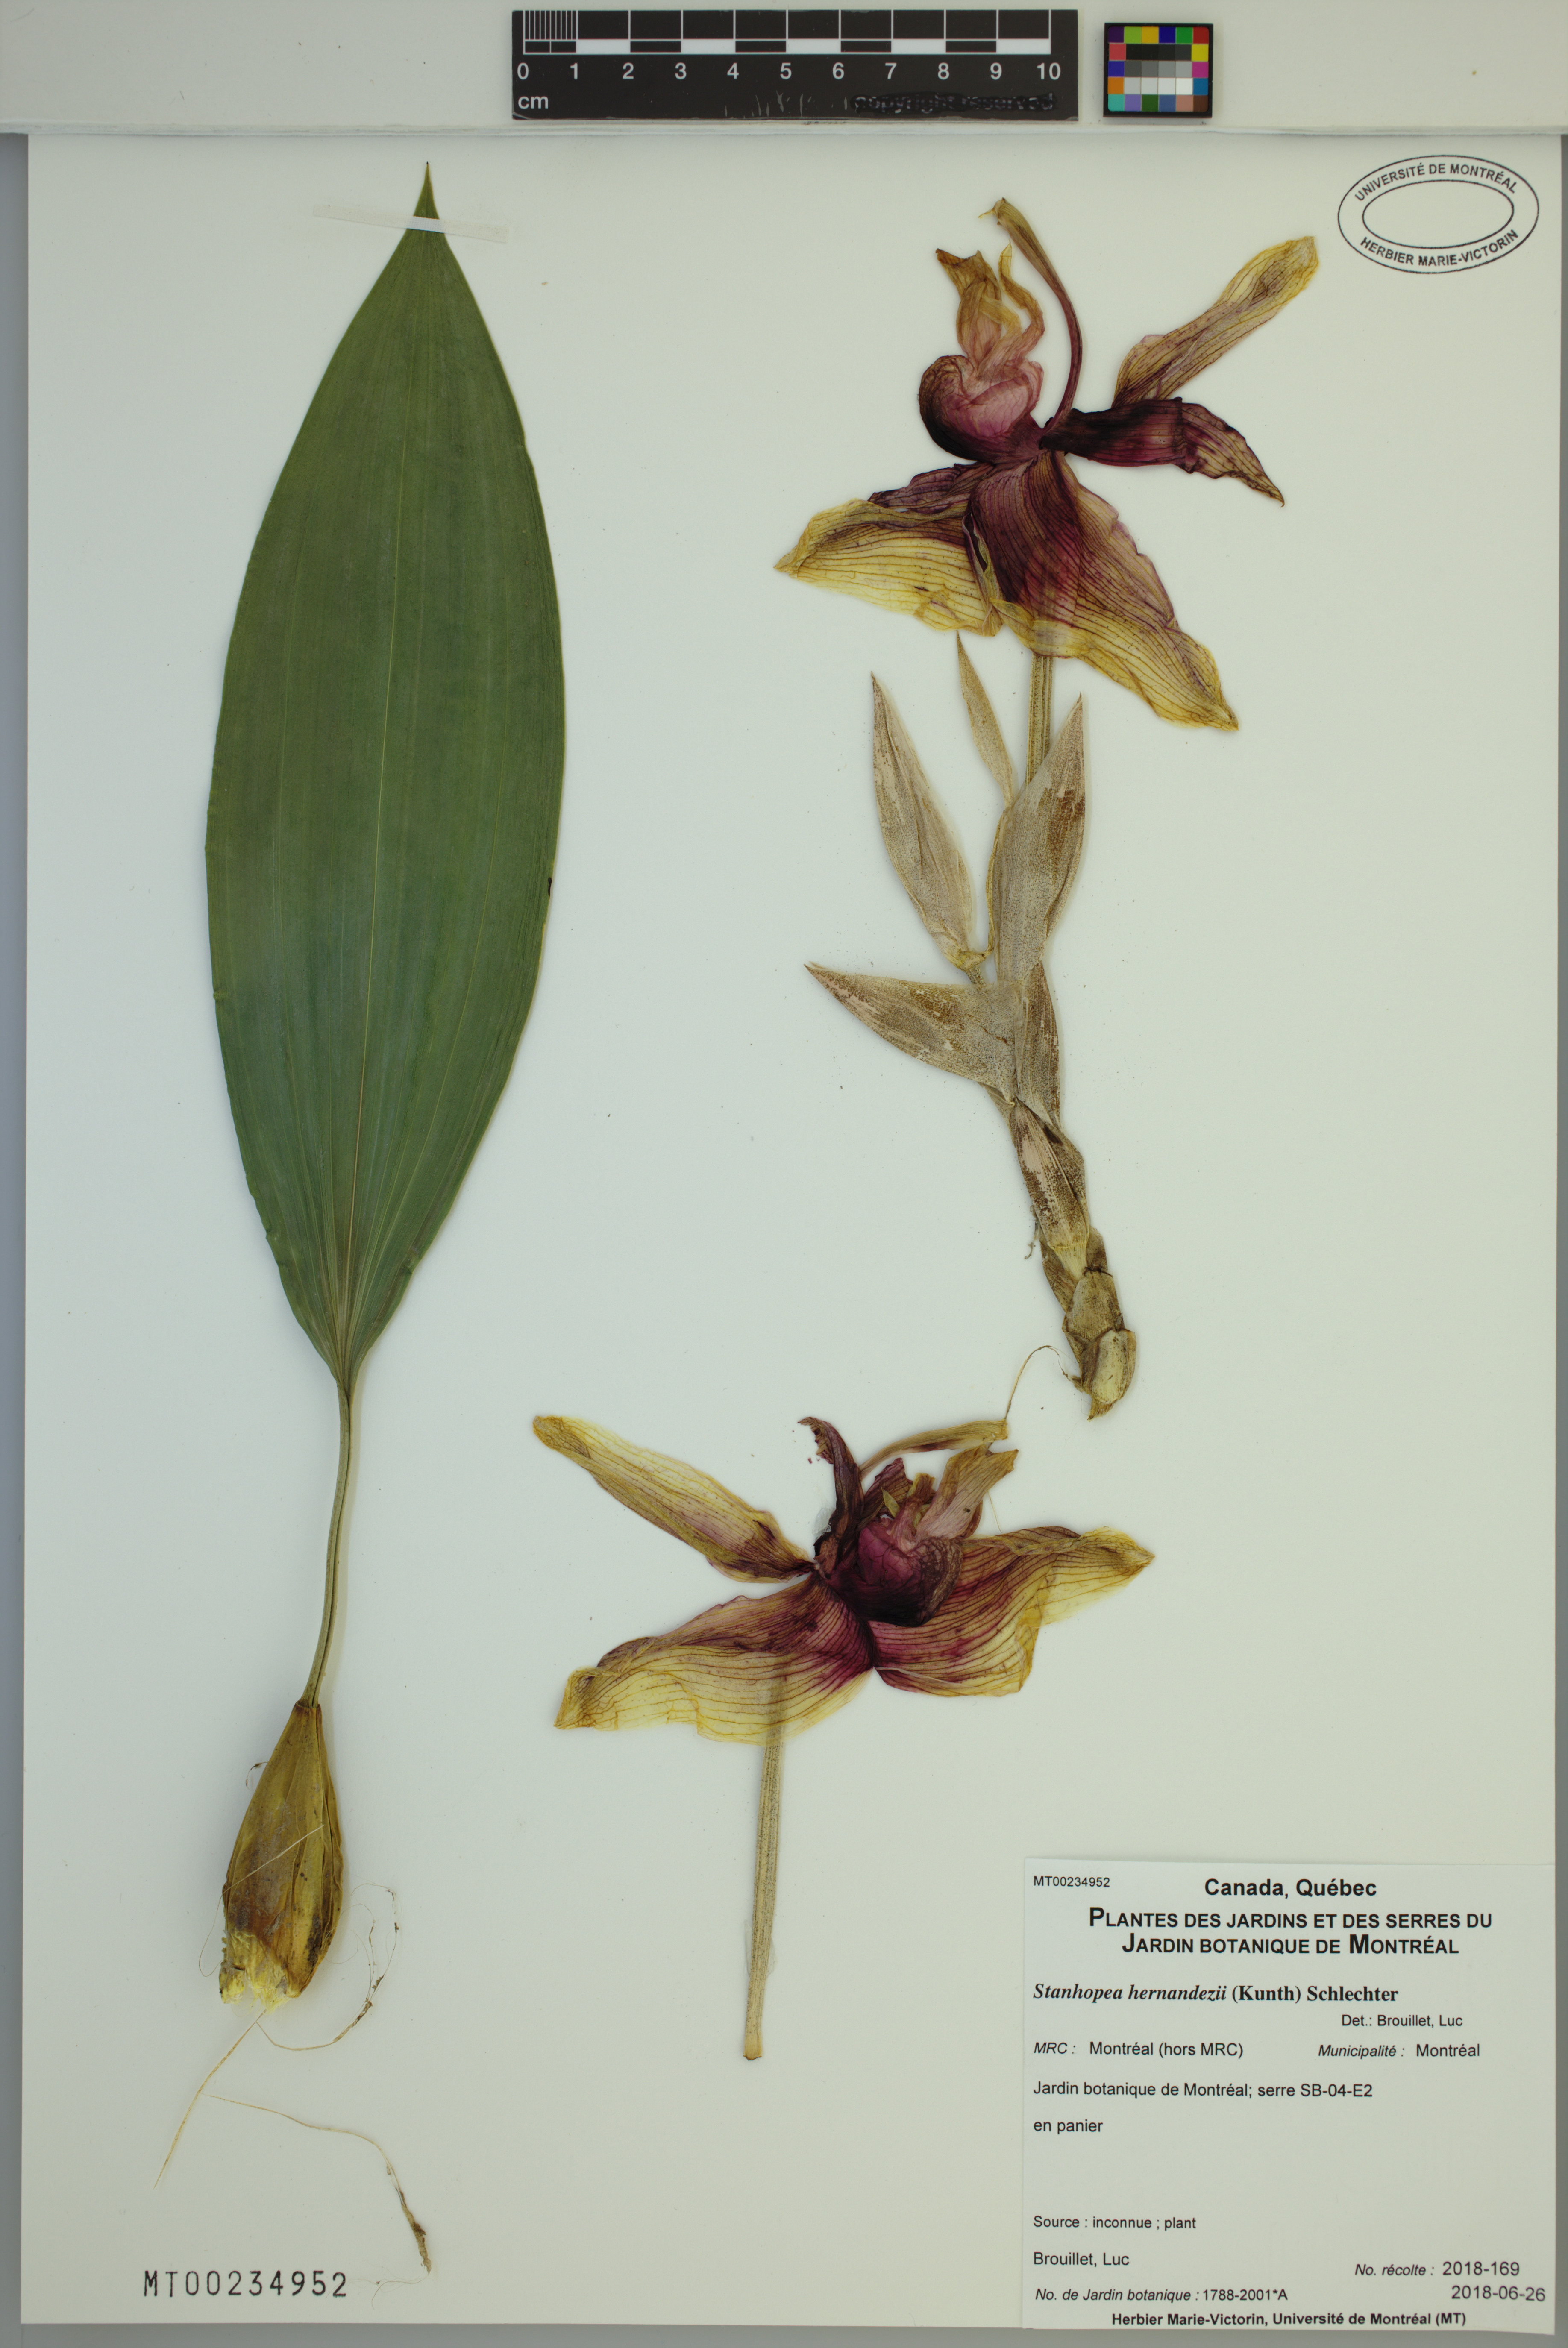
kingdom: Plantae
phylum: Tracheophyta
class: Liliopsida
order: Asparagales
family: Orchidaceae
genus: Stanhopea
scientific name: Stanhopea hernandezii
